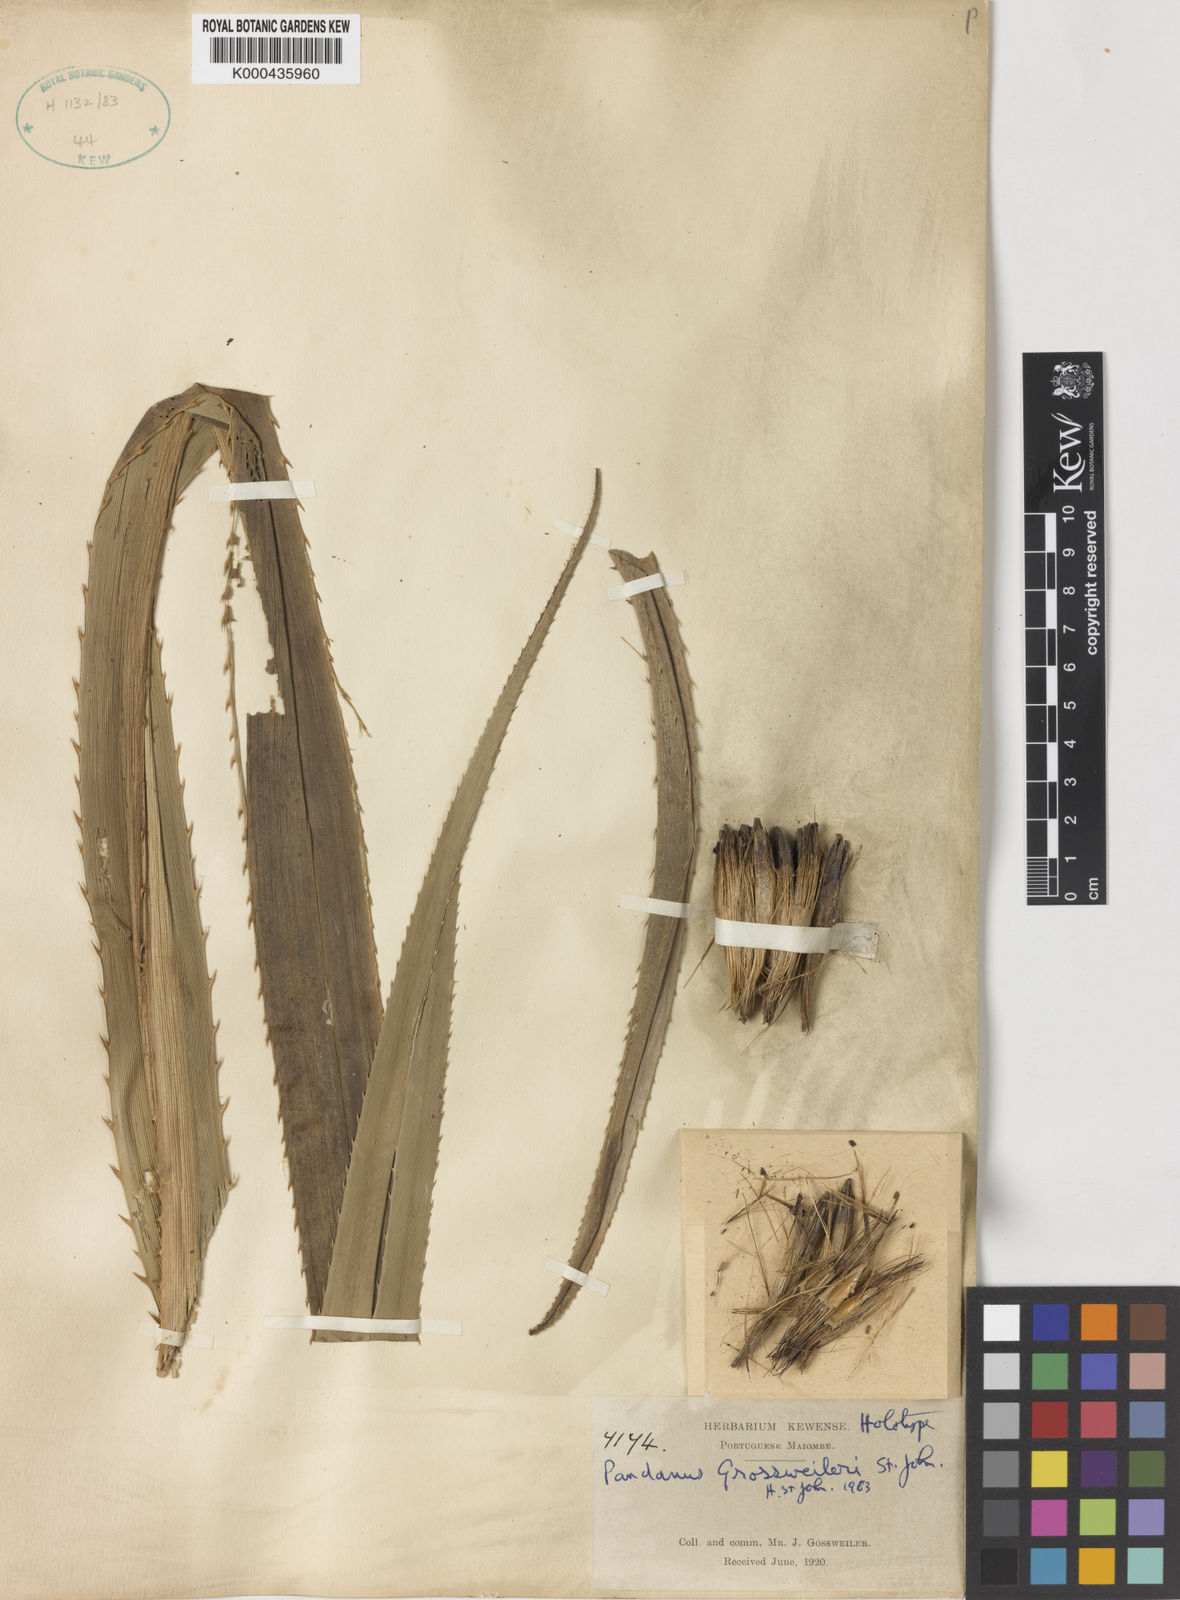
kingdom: Plantae
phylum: Tracheophyta
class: Liliopsida
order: Pandanales
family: Pandanaceae
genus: Pandanus
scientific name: Pandanus gossweileri
